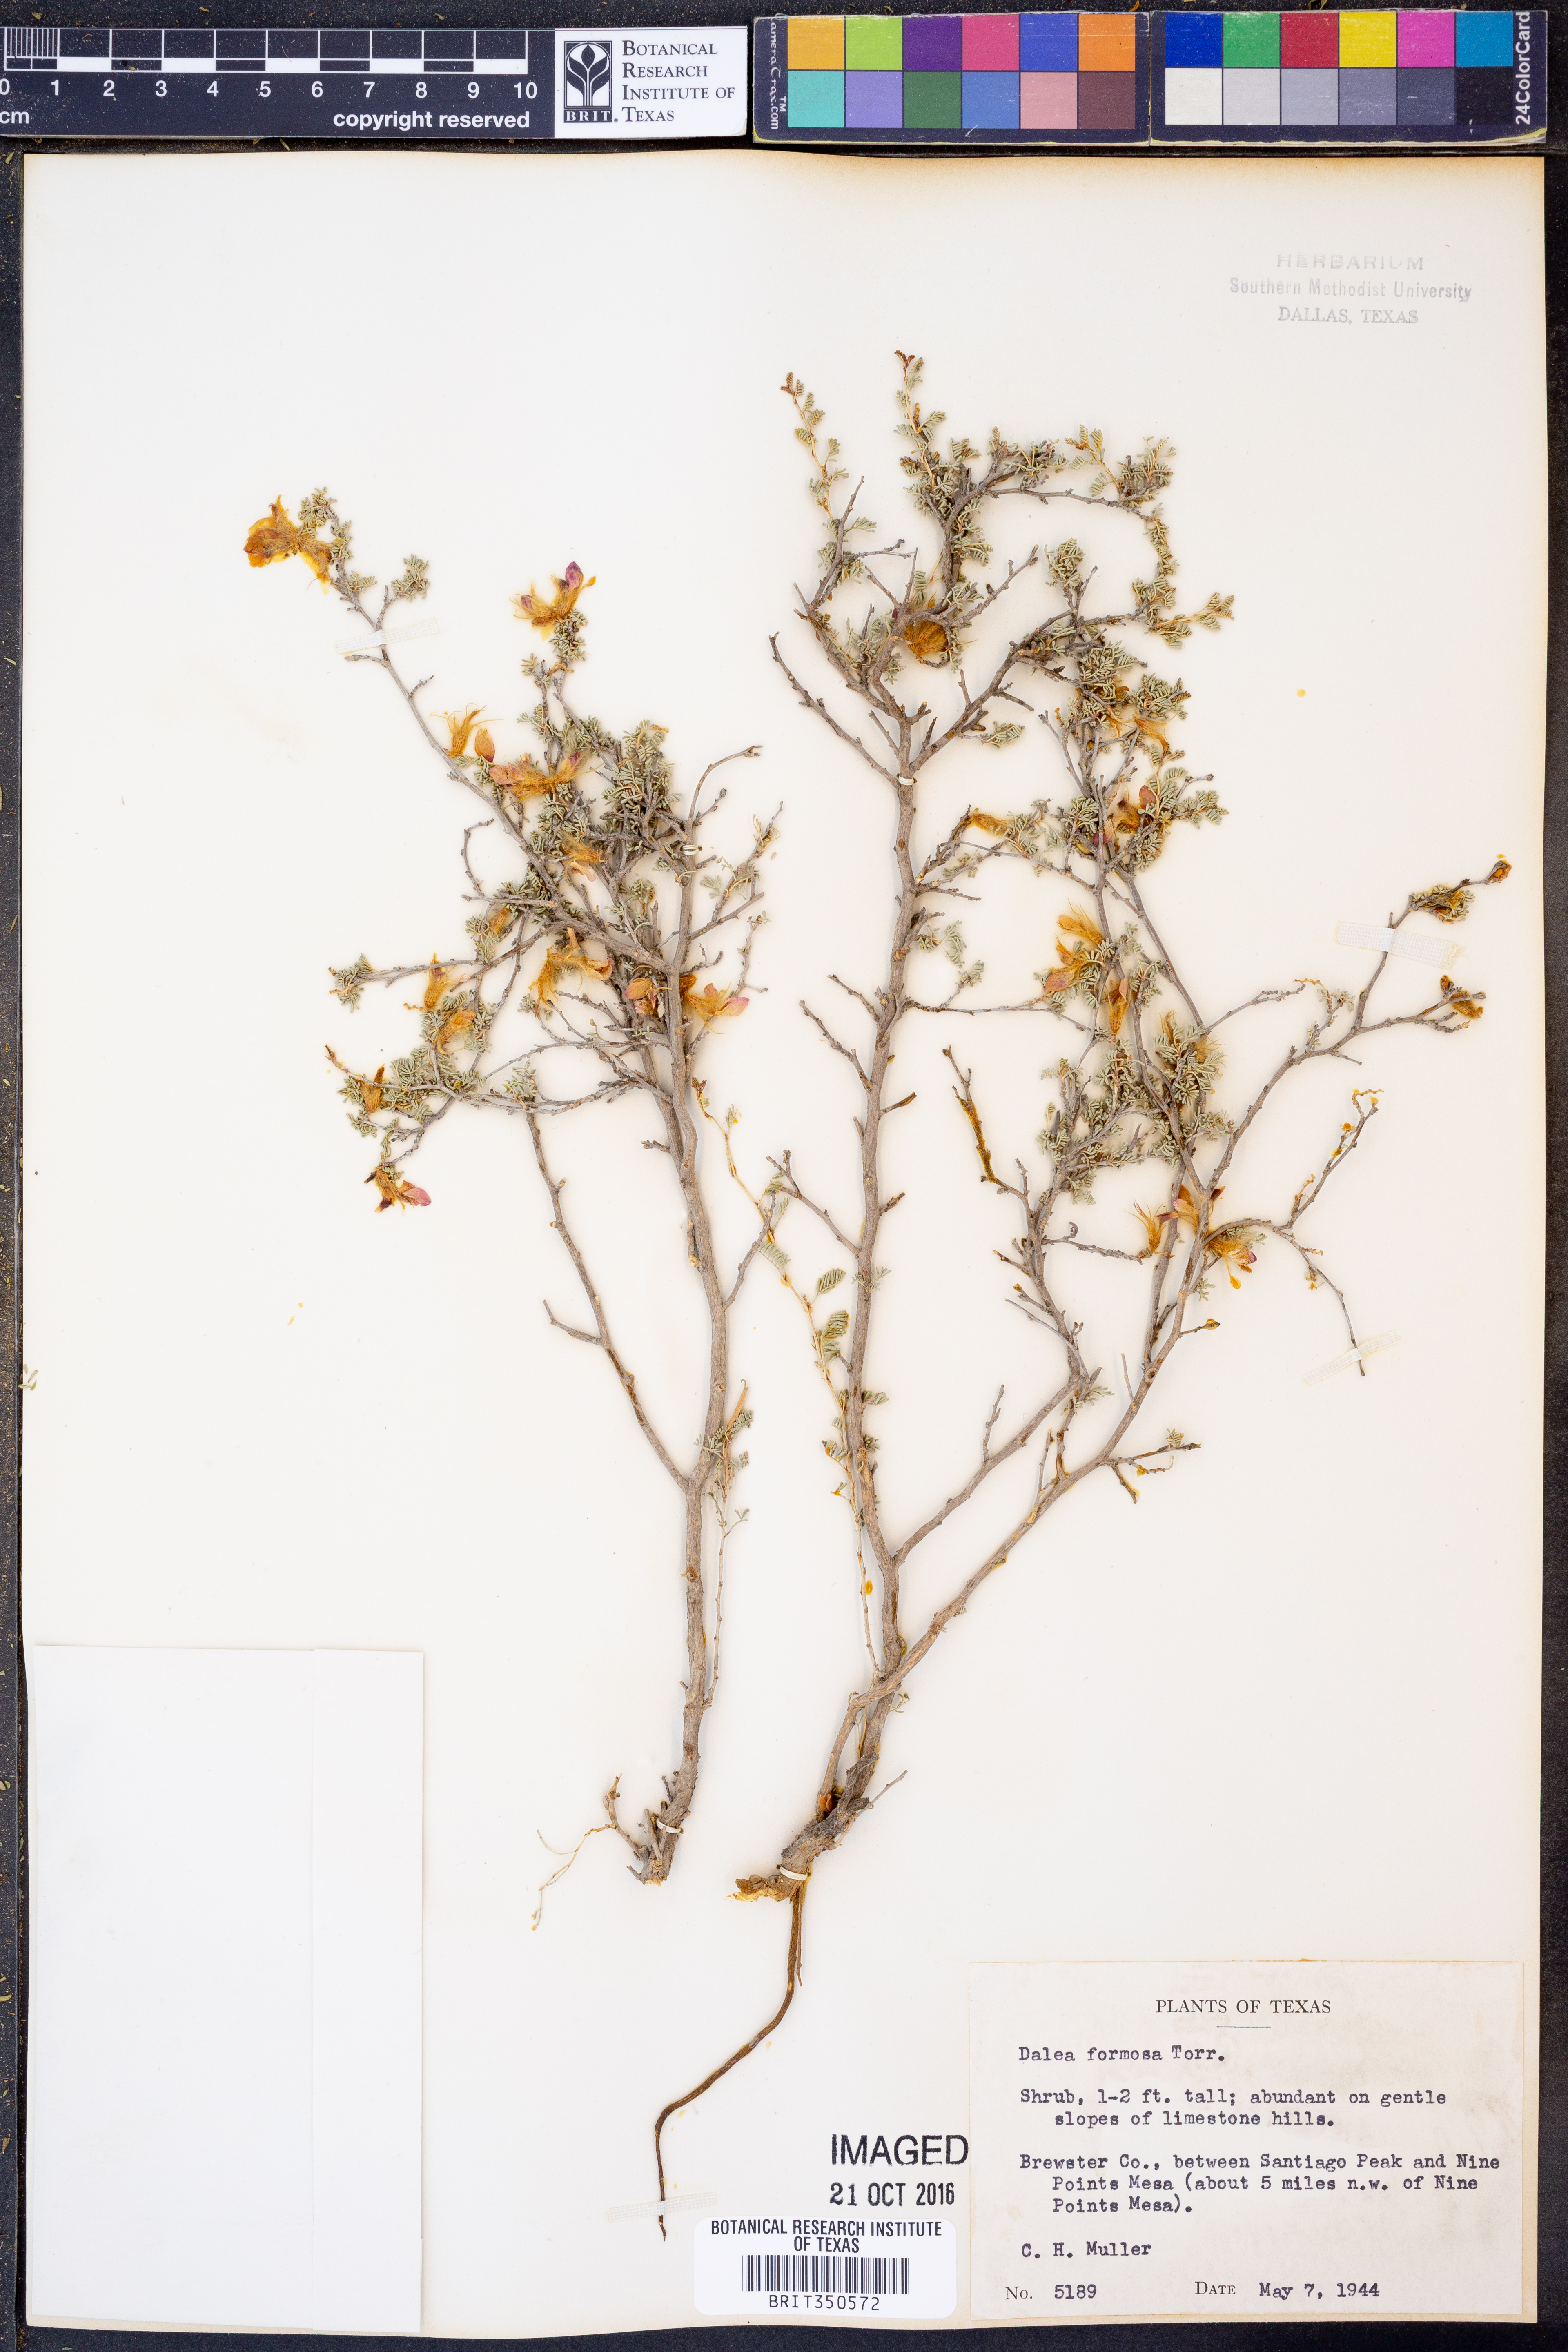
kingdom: Plantae
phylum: Tracheophyta
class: Magnoliopsida
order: Fabales
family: Fabaceae
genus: Dalea
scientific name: Dalea formosa
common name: Feather-plume dalea
